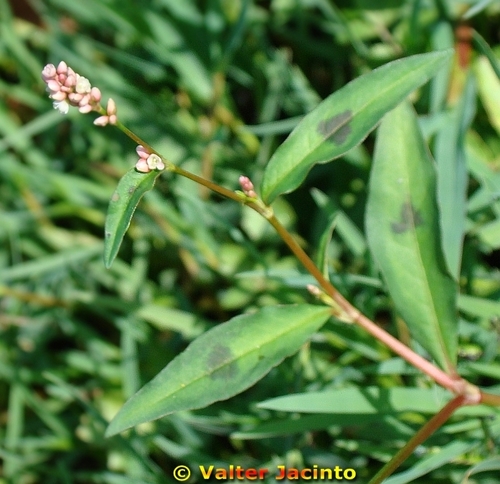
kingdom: Plantae
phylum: Tracheophyta
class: Magnoliopsida
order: Caryophyllales
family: Polygonaceae
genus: Persicaria
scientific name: Persicaria maculosa
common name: Redshank
